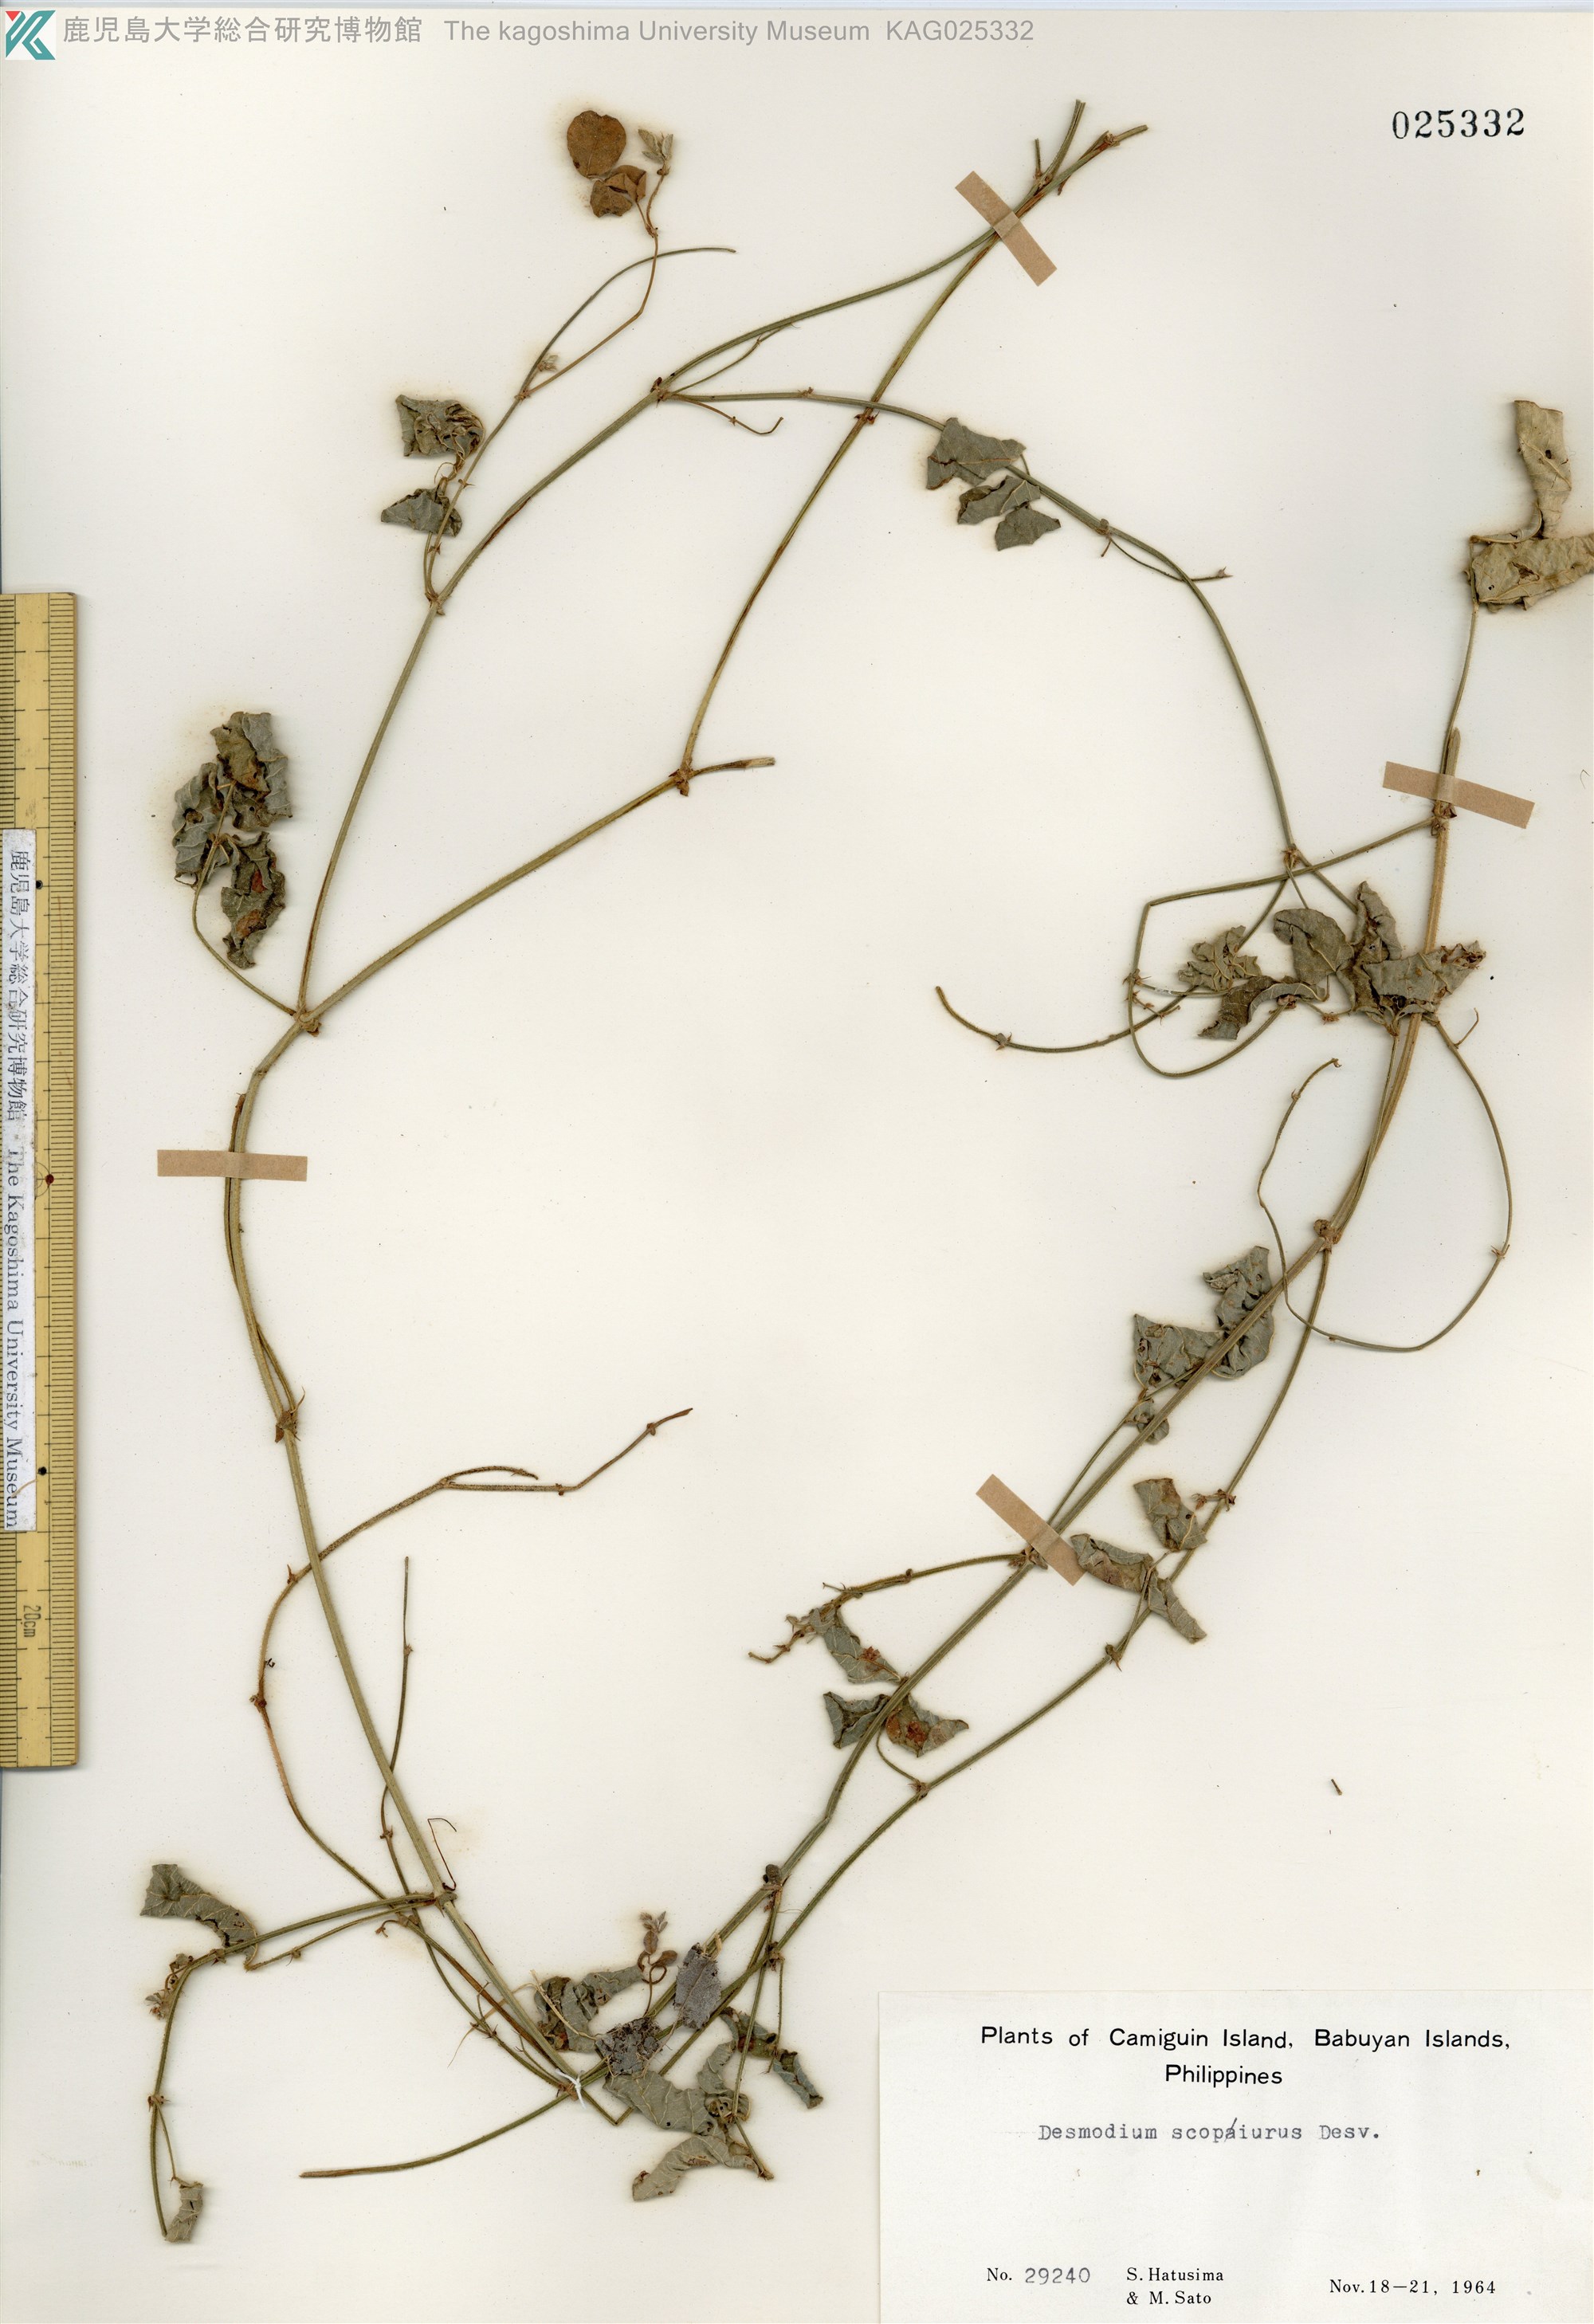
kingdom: Plantae
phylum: Tracheophyta
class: Magnoliopsida
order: Fabales
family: Fabaceae
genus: Desmodium
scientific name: Desmodium scorpiurus
